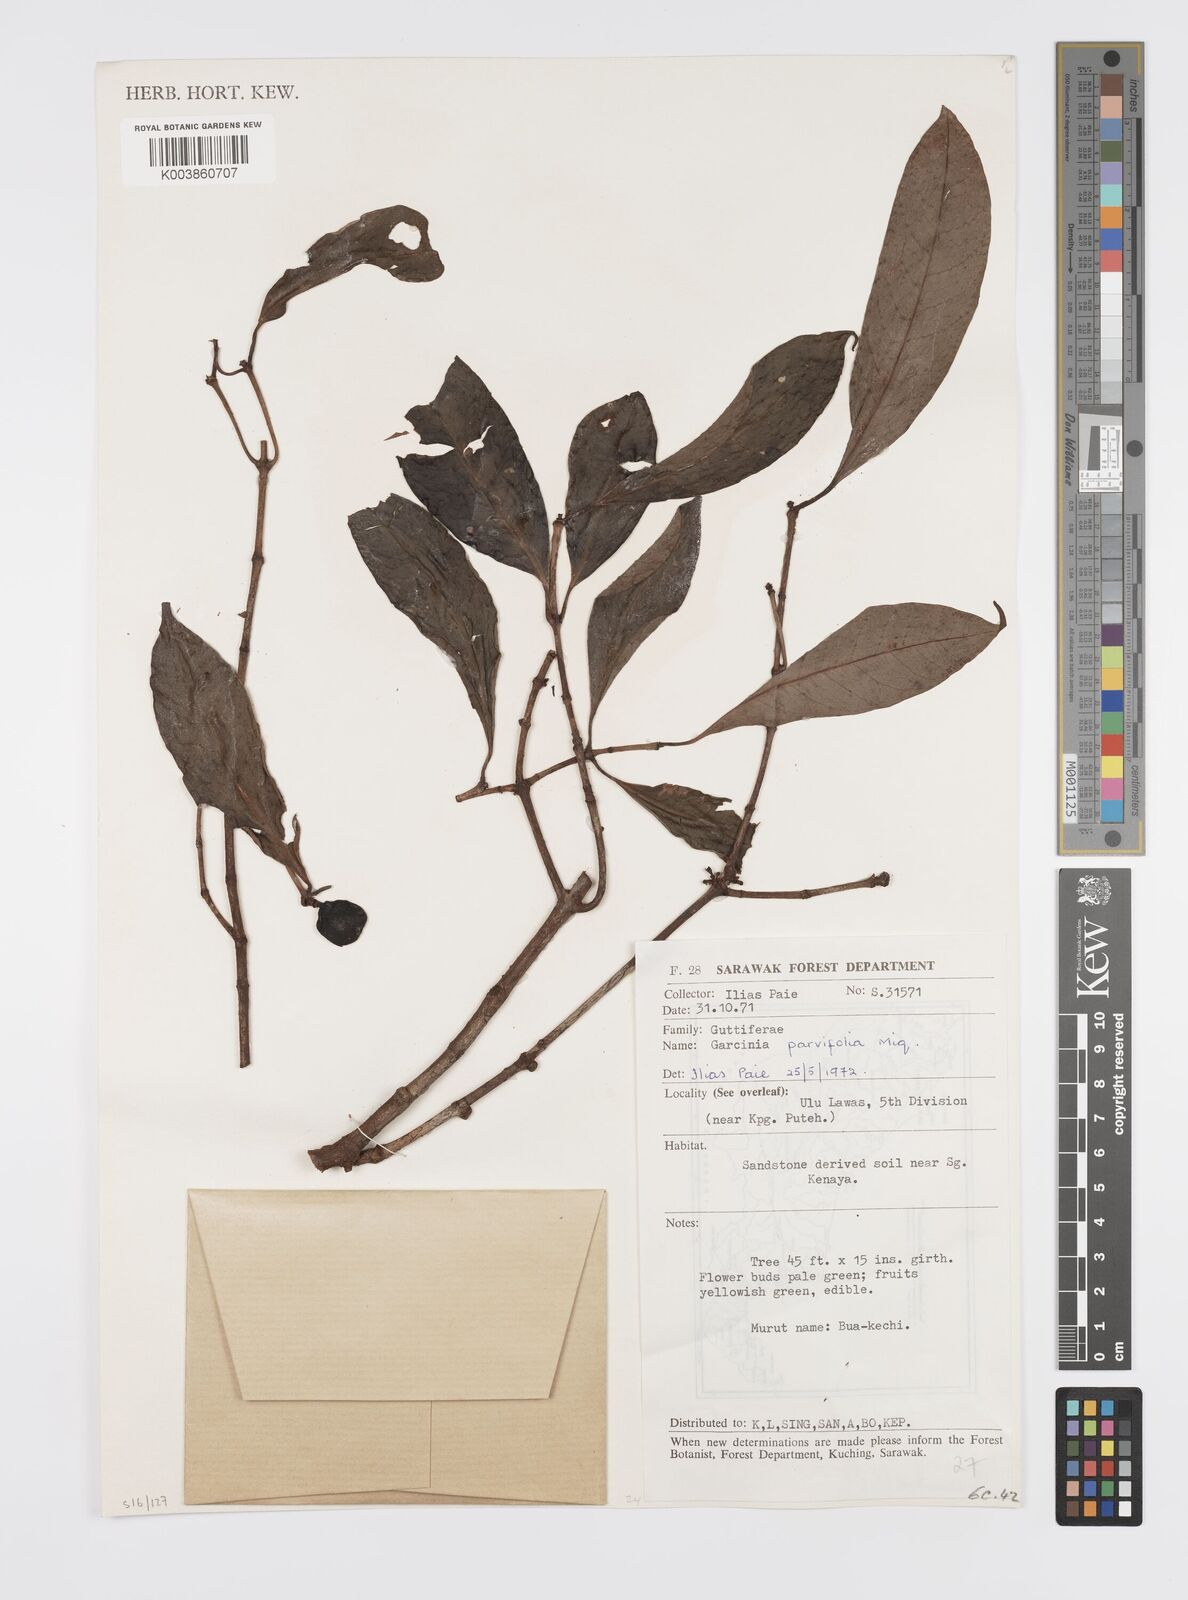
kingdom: Plantae
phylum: Tracheophyta
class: Magnoliopsida
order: Malpighiales
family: Clusiaceae
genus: Garcinia
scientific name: Garcinia parvifolia
